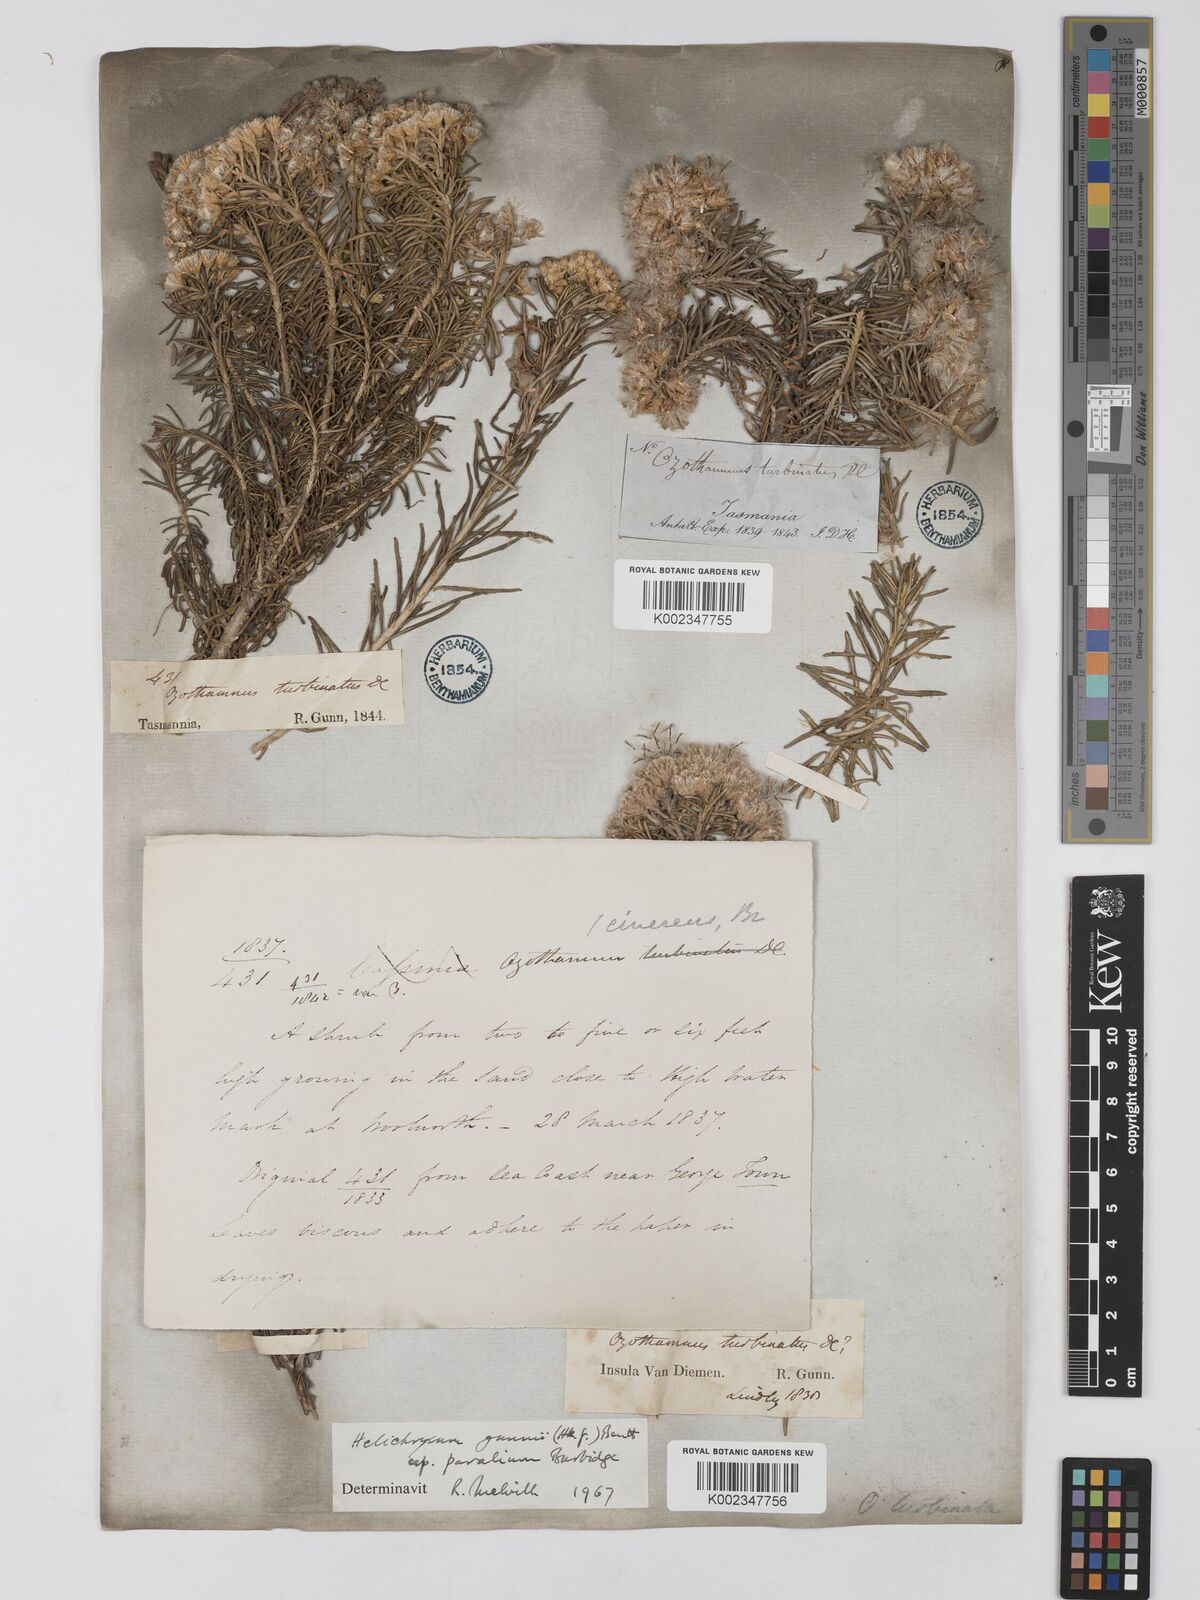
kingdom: Plantae
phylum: Tracheophyta
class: Magnoliopsida
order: Asterales
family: Asteraceae
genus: Ozothamnus
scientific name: Ozothamnus gunnii
